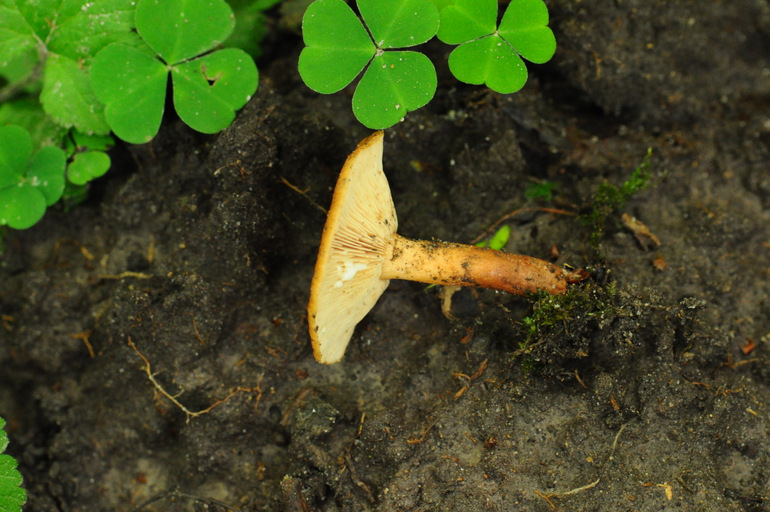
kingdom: Fungi
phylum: Basidiomycota
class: Agaricomycetes
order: Russulales
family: Russulaceae
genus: Lactarius
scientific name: Lactarius tabidus
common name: rynket mælkehat
